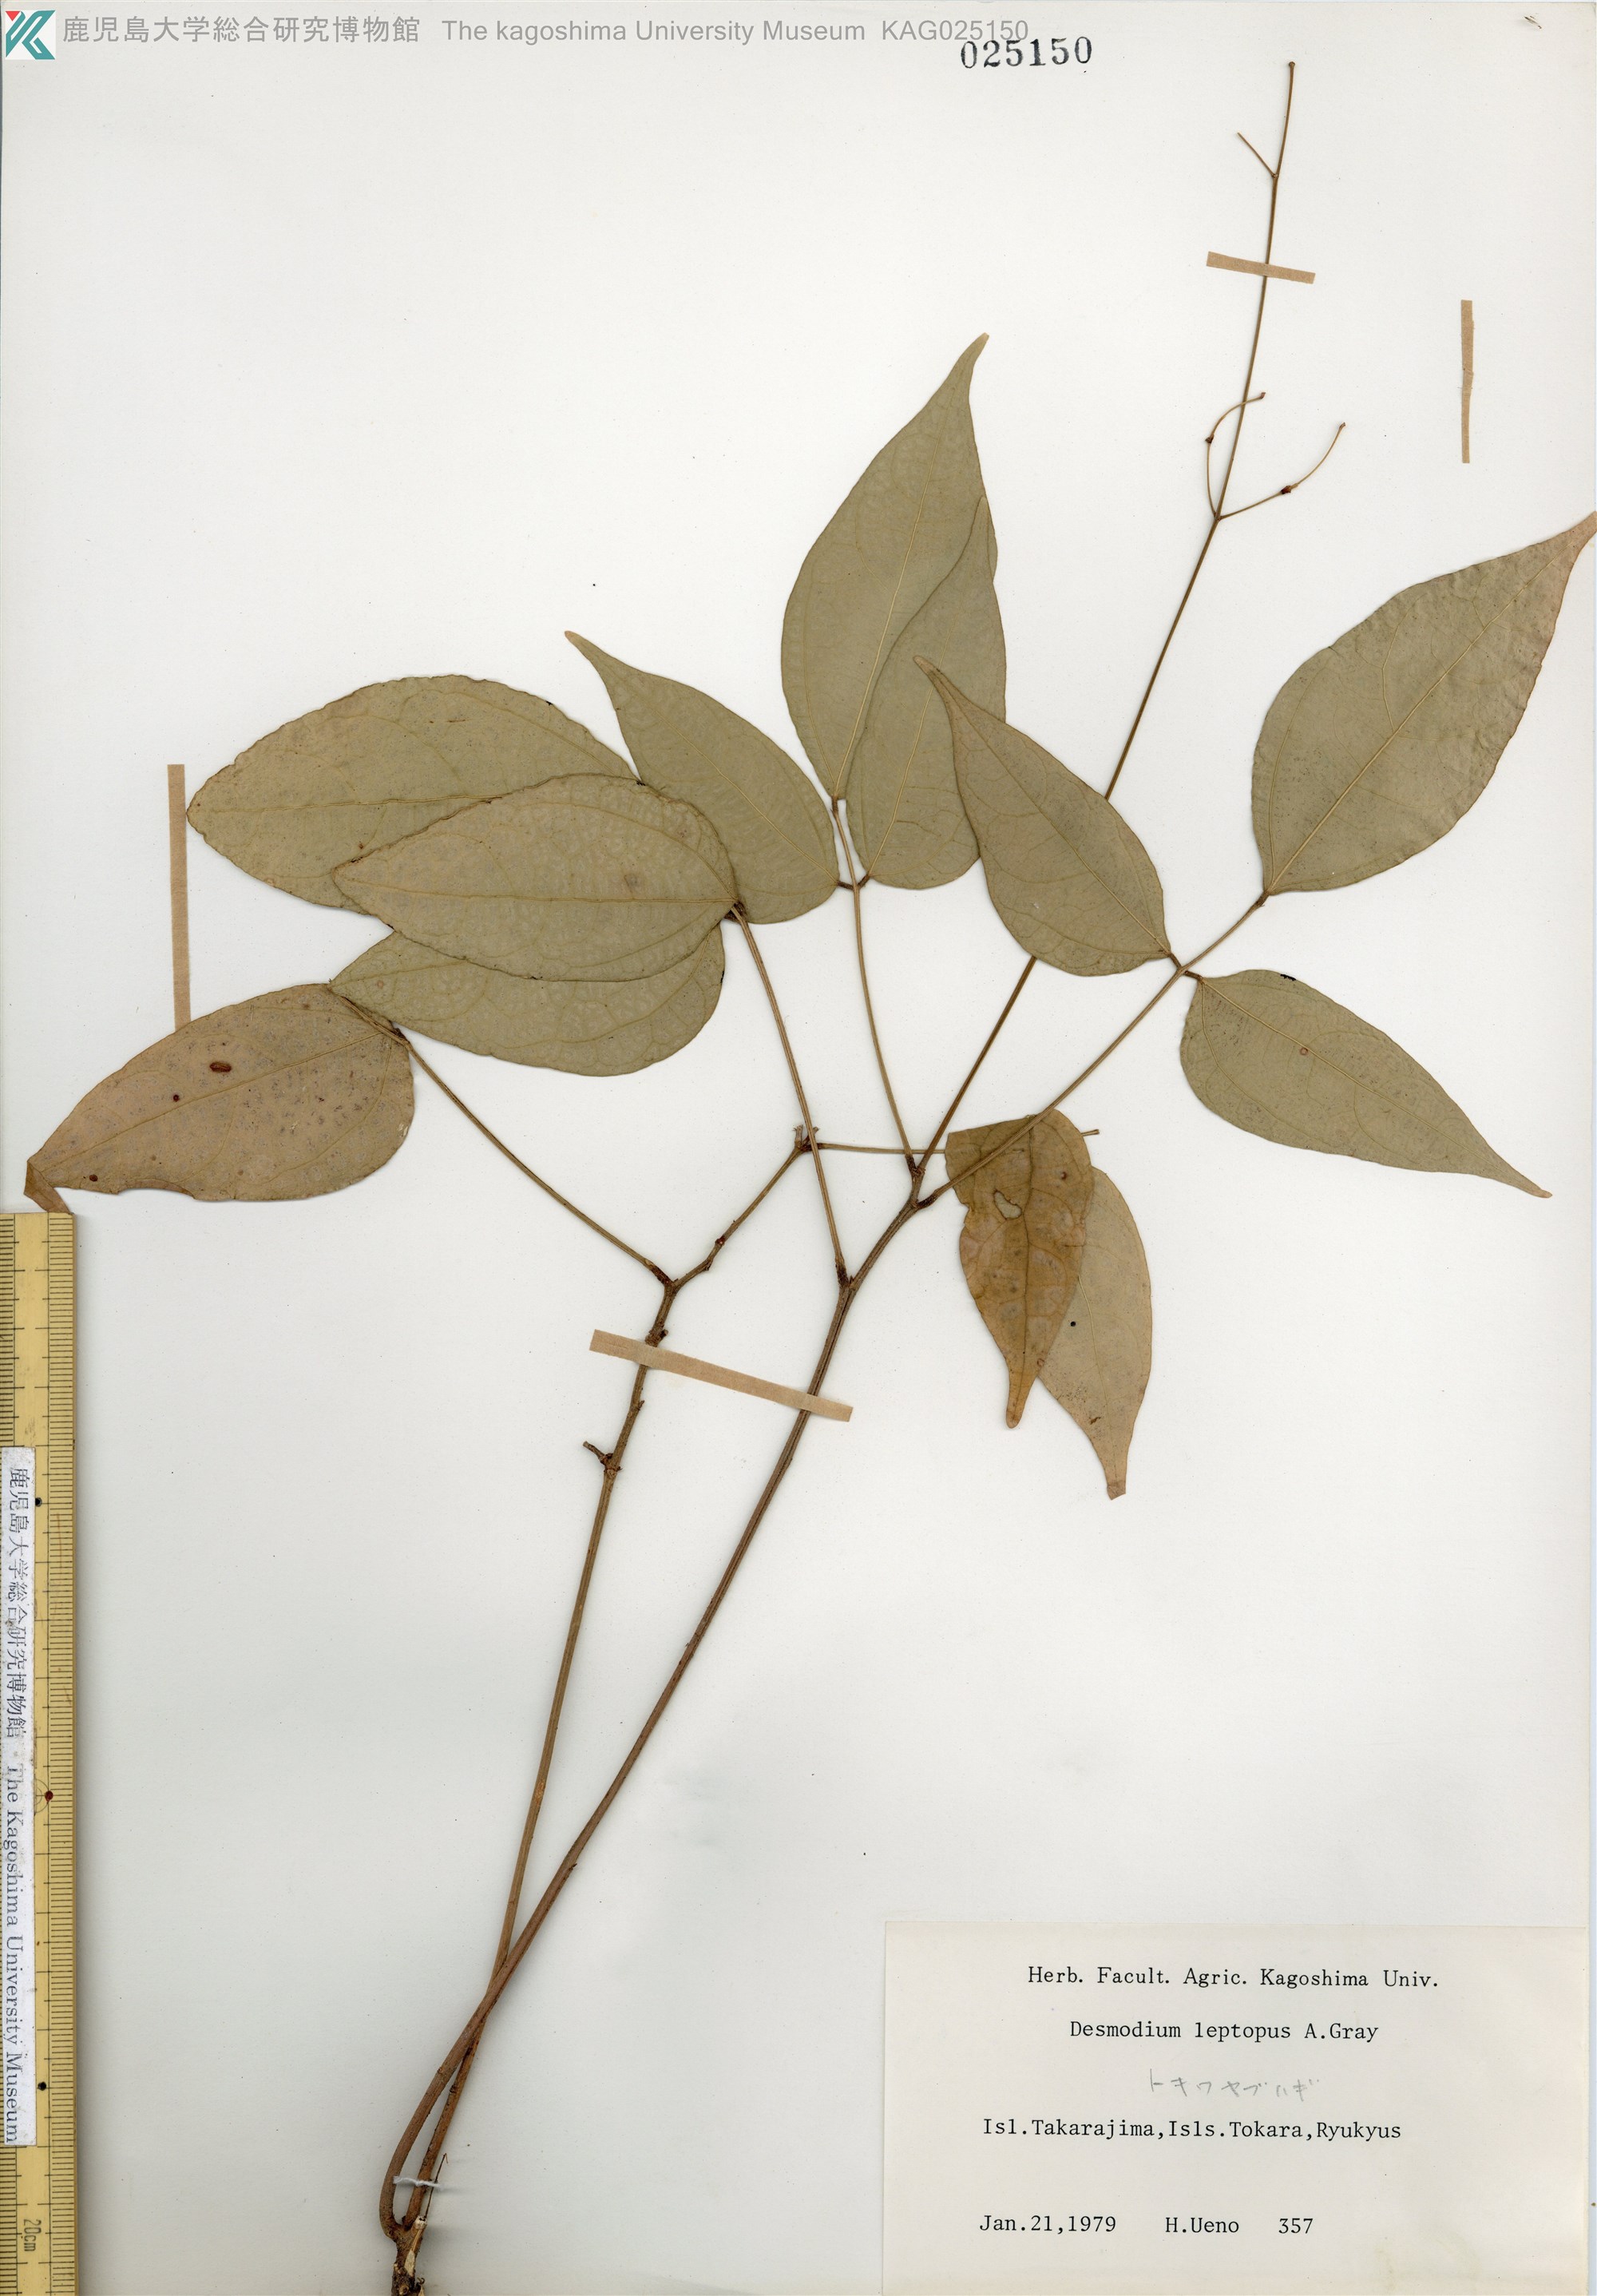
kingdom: Plantae
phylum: Tracheophyta
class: Magnoliopsida
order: Fabales
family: Fabaceae
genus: Hylodesmum
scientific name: Hylodesmum leptopus
